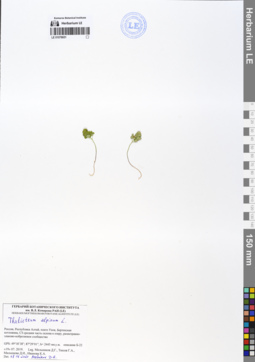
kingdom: Plantae
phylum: Tracheophyta
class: Magnoliopsida
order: Ranunculales
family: Ranunculaceae
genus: Thalictrum
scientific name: Thalictrum alpinum
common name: Alpine meadow-rue
